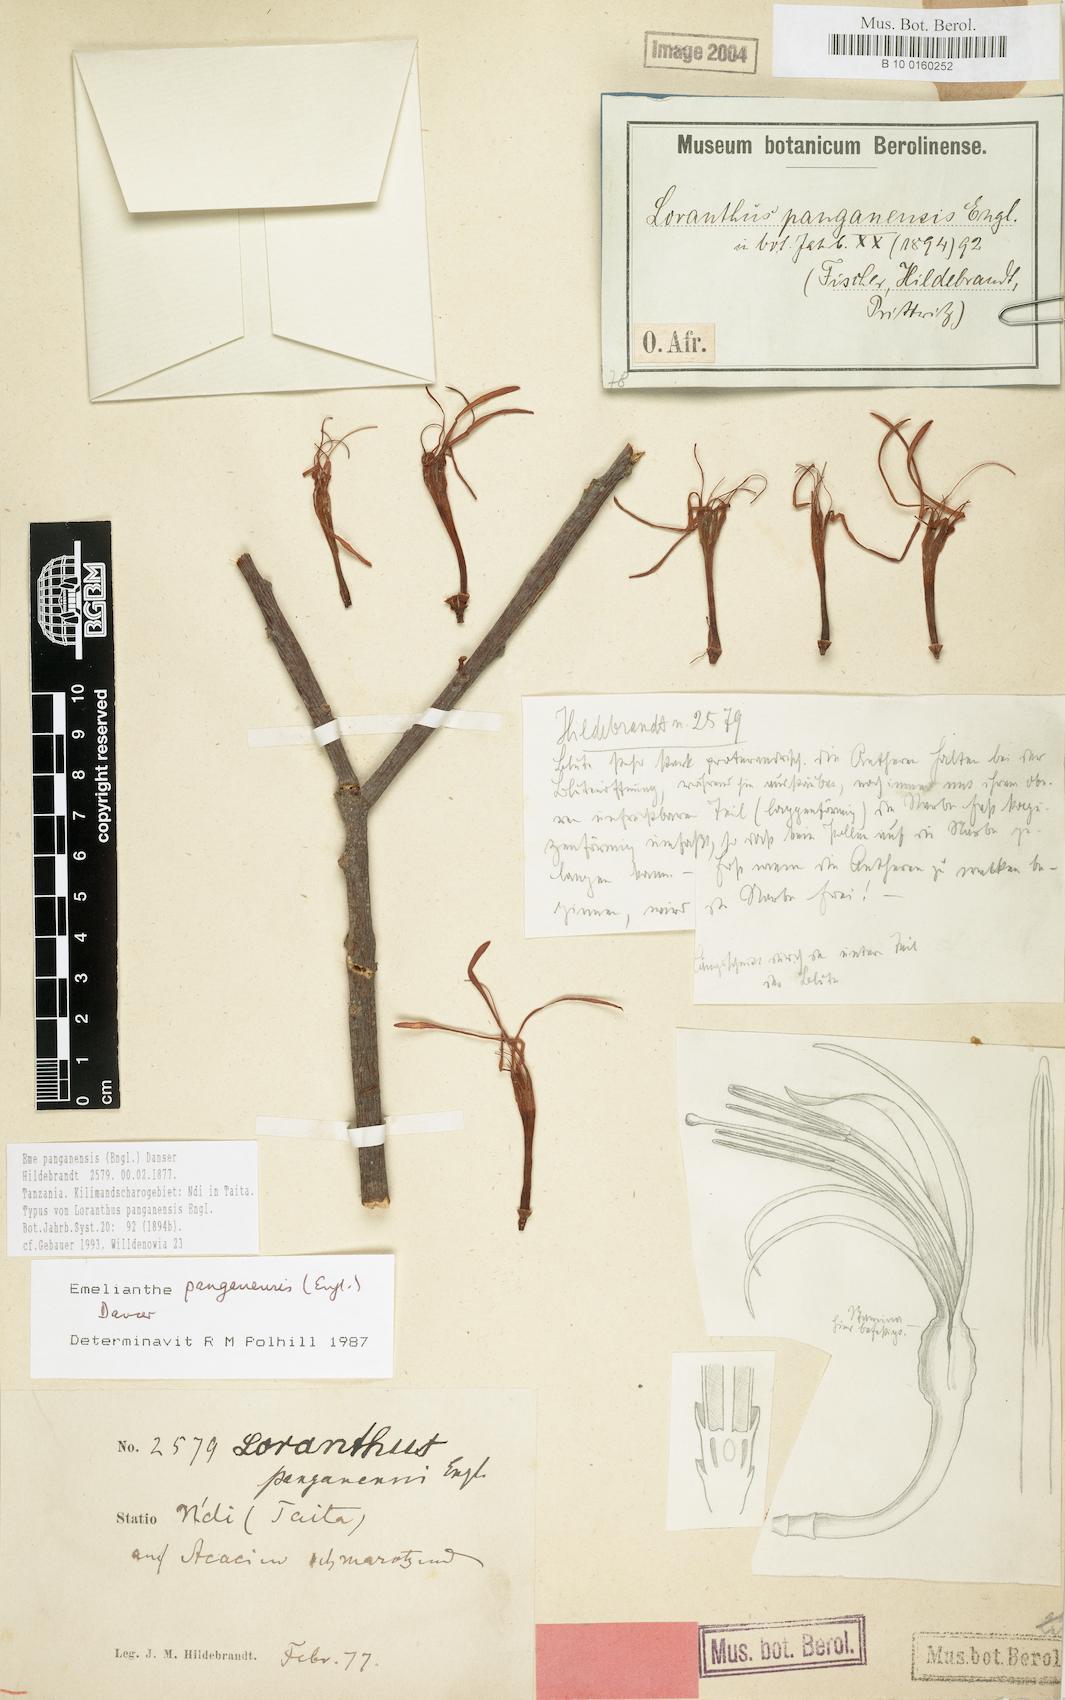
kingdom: Plantae
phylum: Tracheophyta
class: Magnoliopsida
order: Santalales
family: Loranthaceae
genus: Emelianthe
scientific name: Emelianthe panganensis
